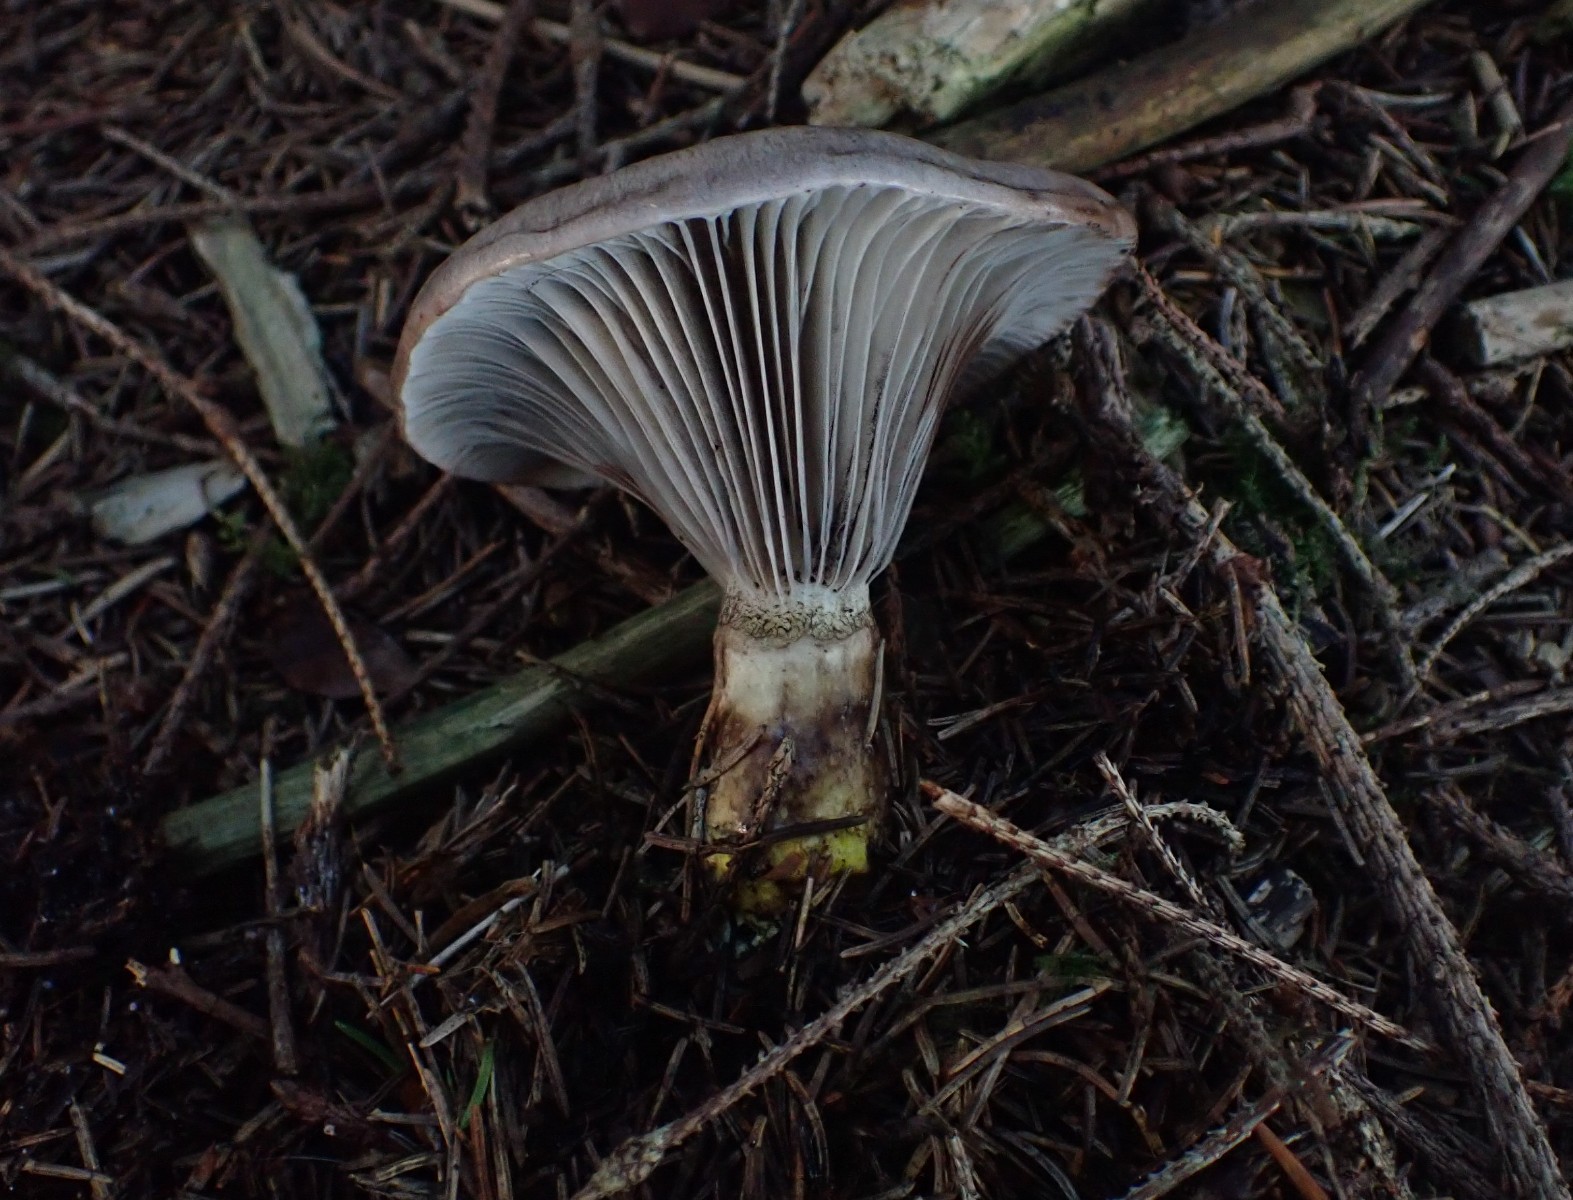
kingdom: Fungi
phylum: Basidiomycota
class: Agaricomycetes
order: Boletales
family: Gomphidiaceae
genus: Gomphidius
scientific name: Gomphidius glutinosus
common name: grå slimslør
